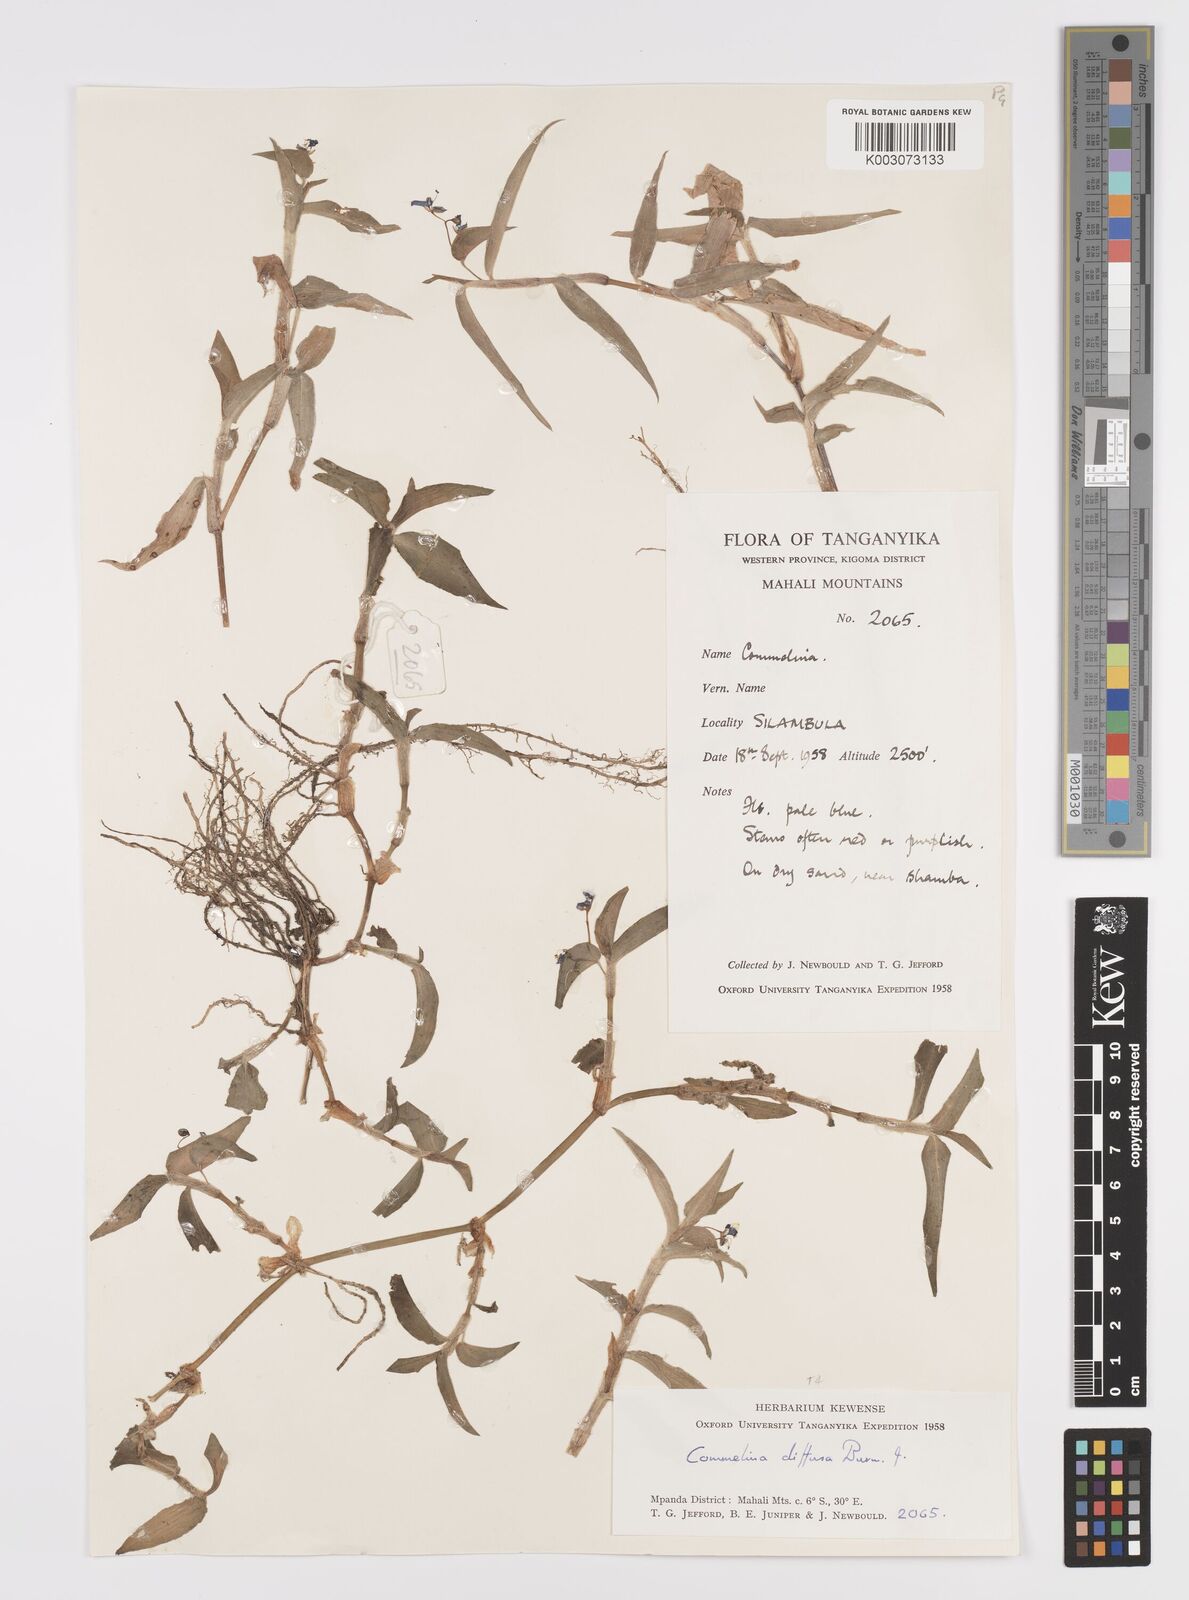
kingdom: Plantae
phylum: Tracheophyta
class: Liliopsida
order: Commelinales
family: Commelinaceae
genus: Commelina
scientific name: Commelina diffusa
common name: Climbing dayflower
